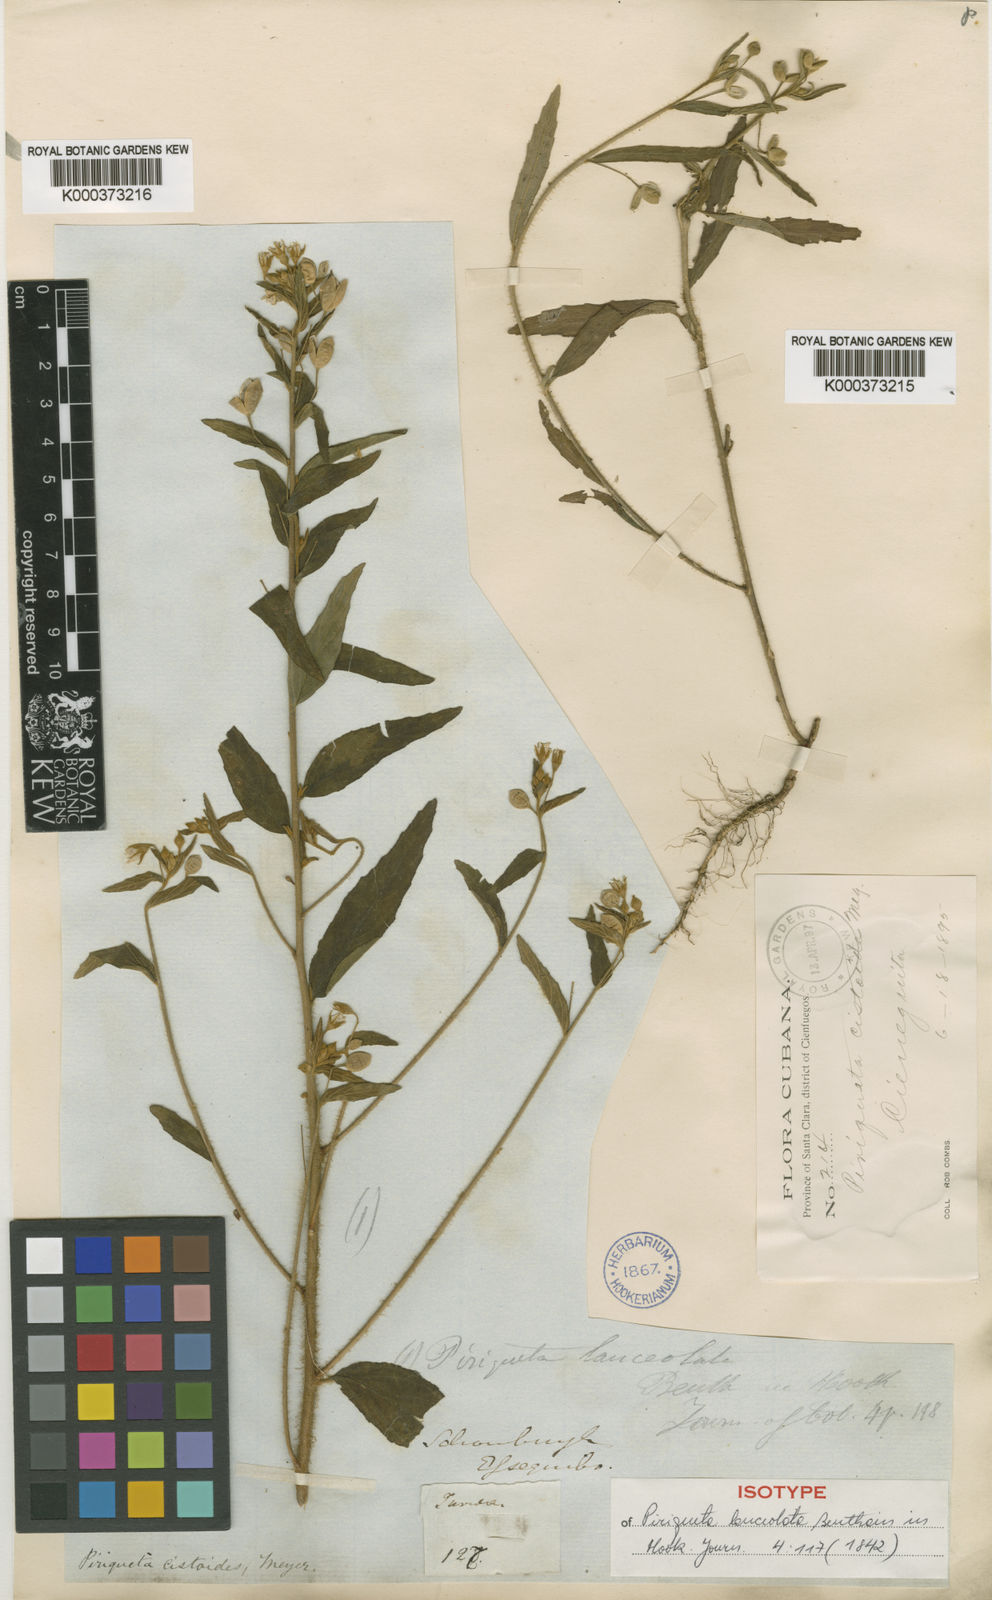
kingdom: Plantae
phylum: Tracheophyta
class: Magnoliopsida
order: Malpighiales
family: Turneraceae
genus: Piriqueta
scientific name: Piriqueta cistoides
